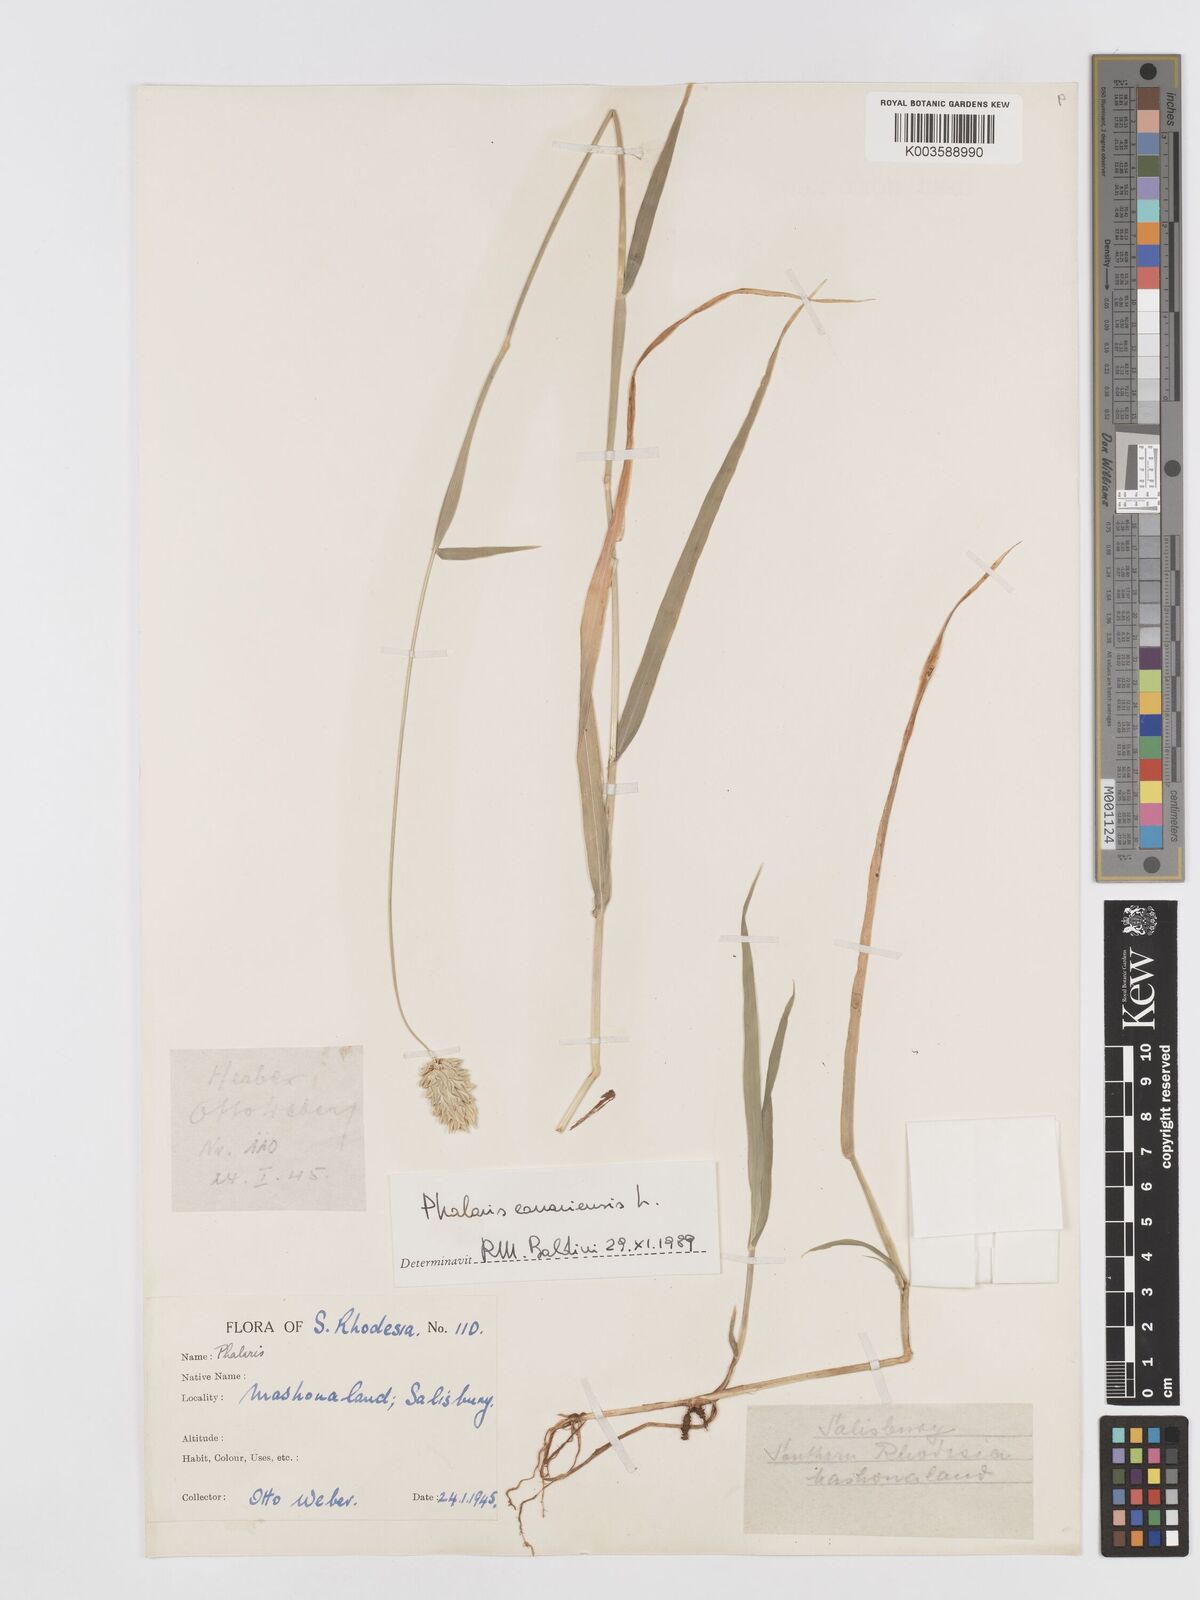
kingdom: Plantae
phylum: Tracheophyta
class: Liliopsida
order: Poales
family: Poaceae
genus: Phalaris
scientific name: Phalaris canariensis
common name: Annual canarygrass
